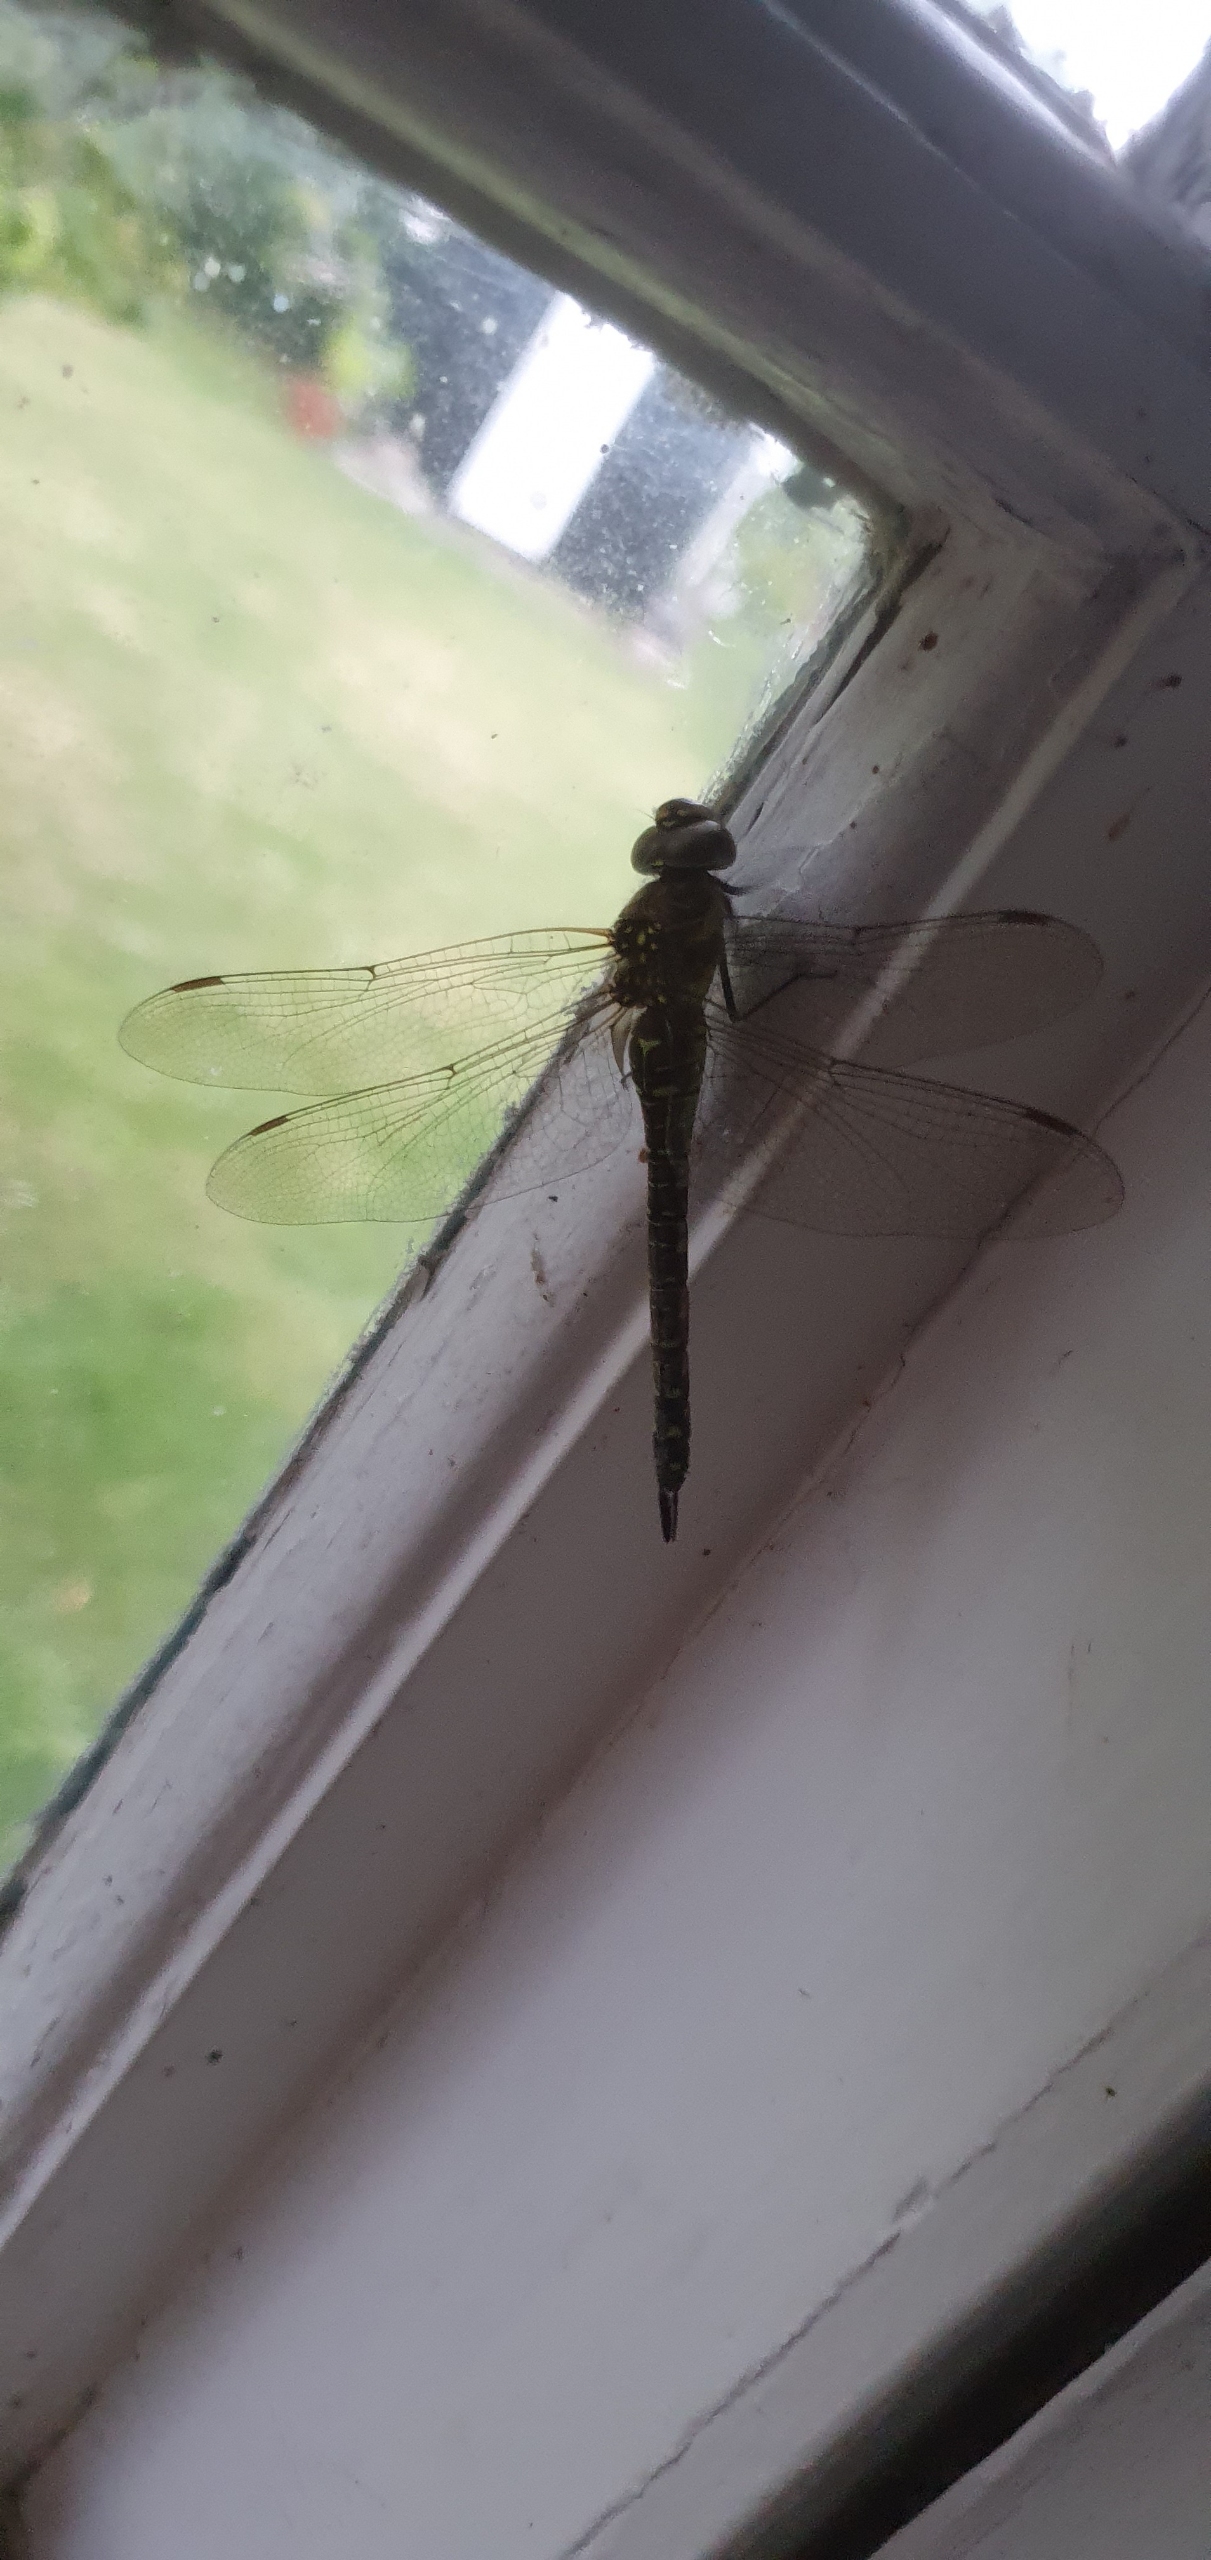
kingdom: Animalia
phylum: Arthropoda
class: Insecta
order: Odonata
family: Aeshnidae
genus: Aeshna
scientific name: Aeshna grandis
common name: Brun mosaikguldsmed
